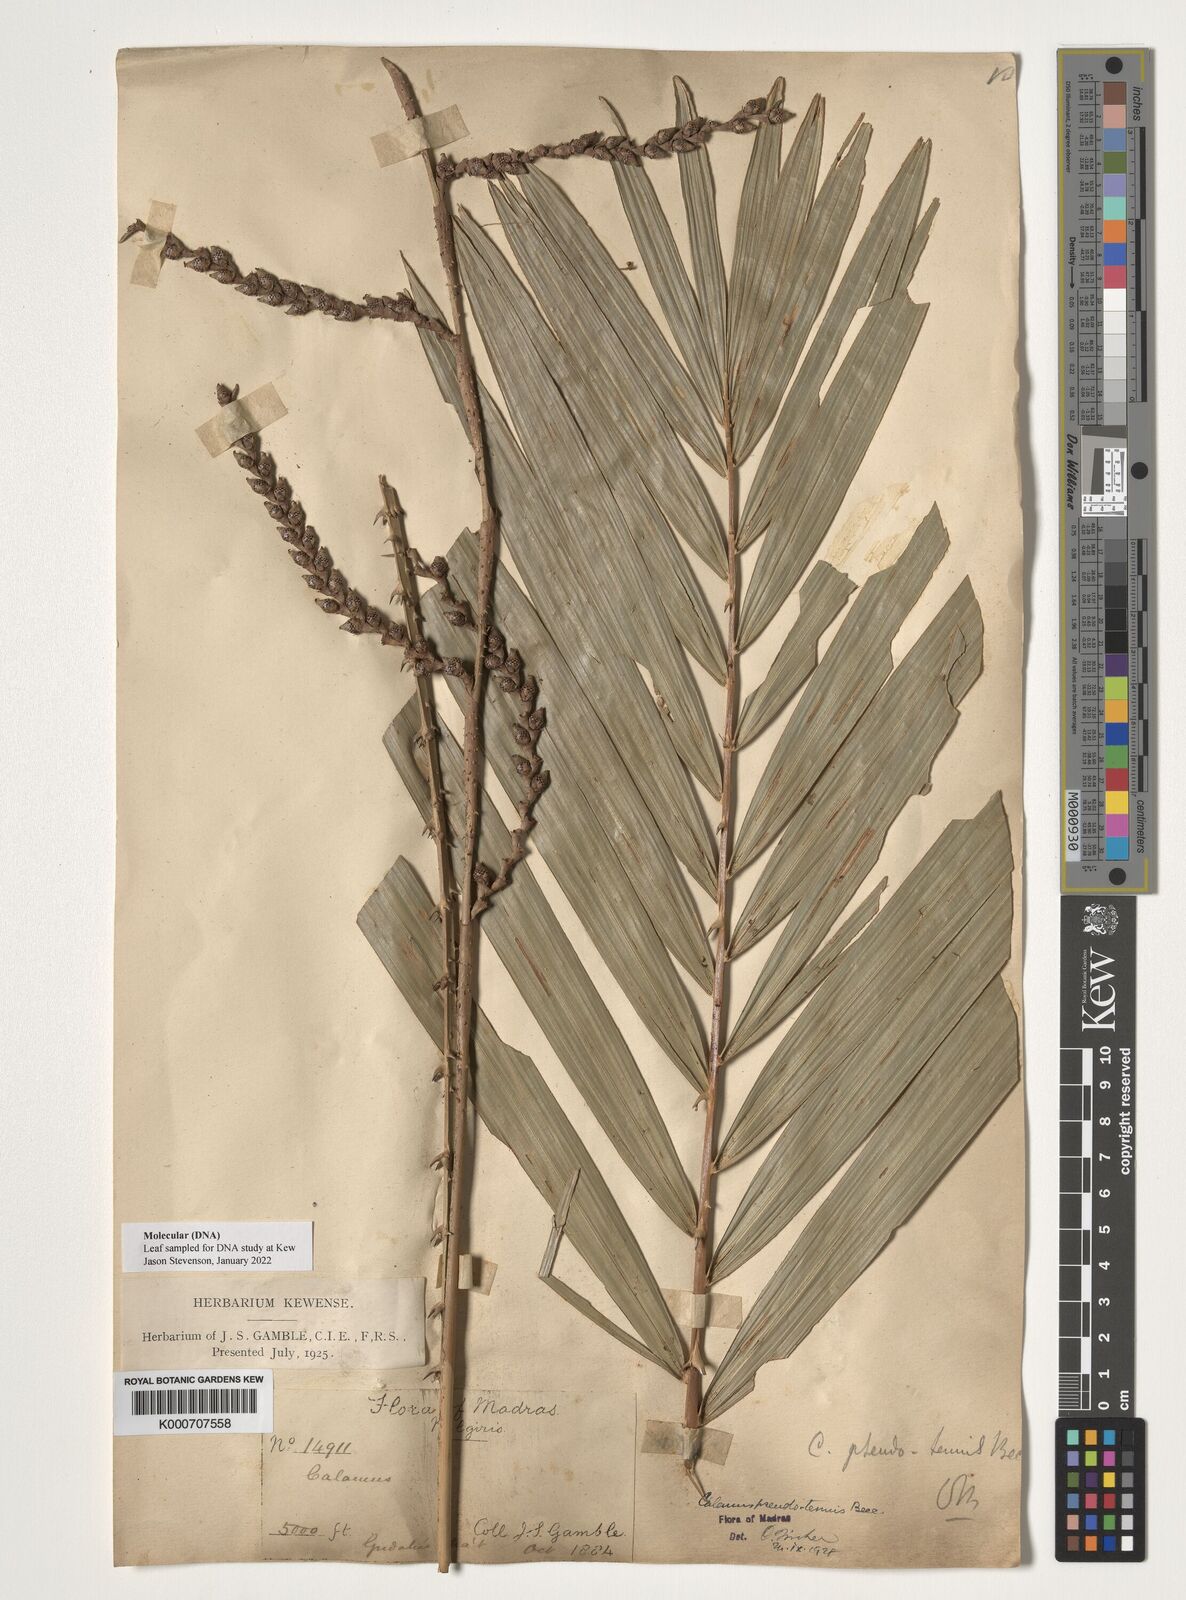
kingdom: Plantae
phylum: Tracheophyta
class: Liliopsida
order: Arecales
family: Arecaceae
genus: Calamus
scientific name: Calamus
